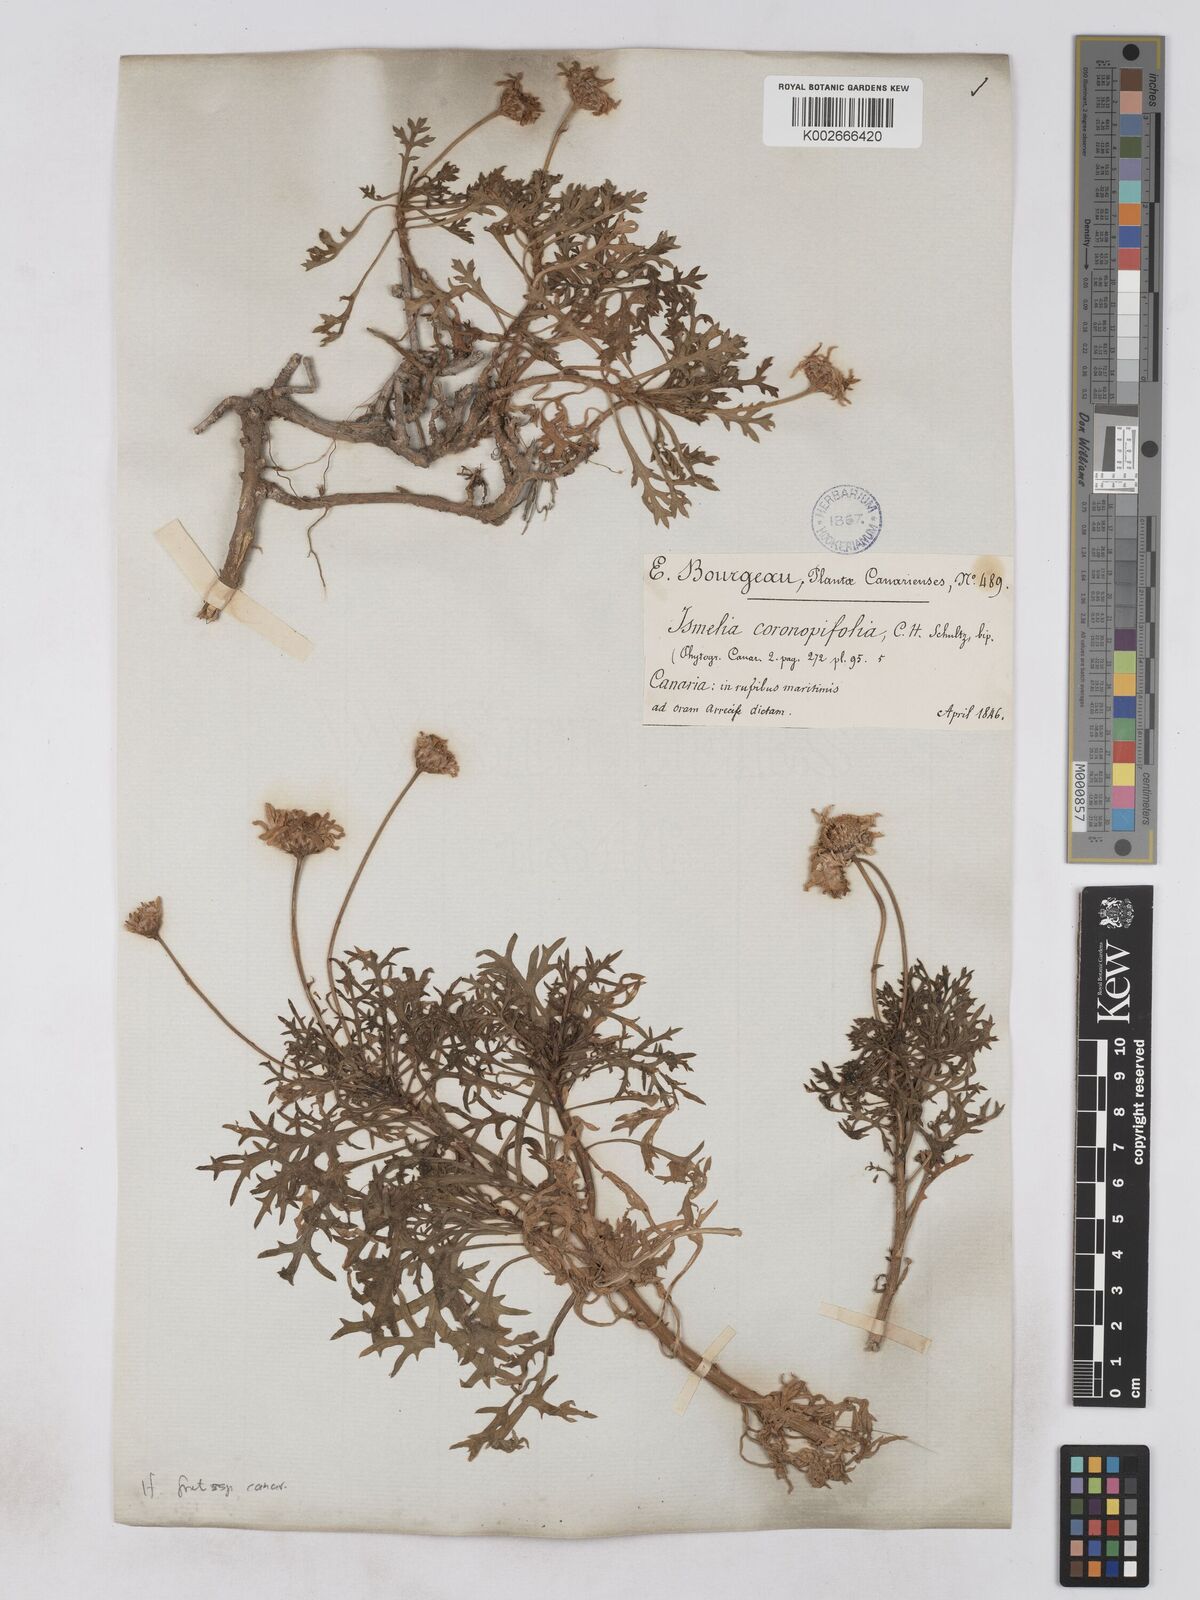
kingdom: Plantae
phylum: Tracheophyta
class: Magnoliopsida
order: Asterales
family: Asteraceae
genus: Argyranthemum
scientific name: Argyranthemum frutescens
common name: Paris daisy
